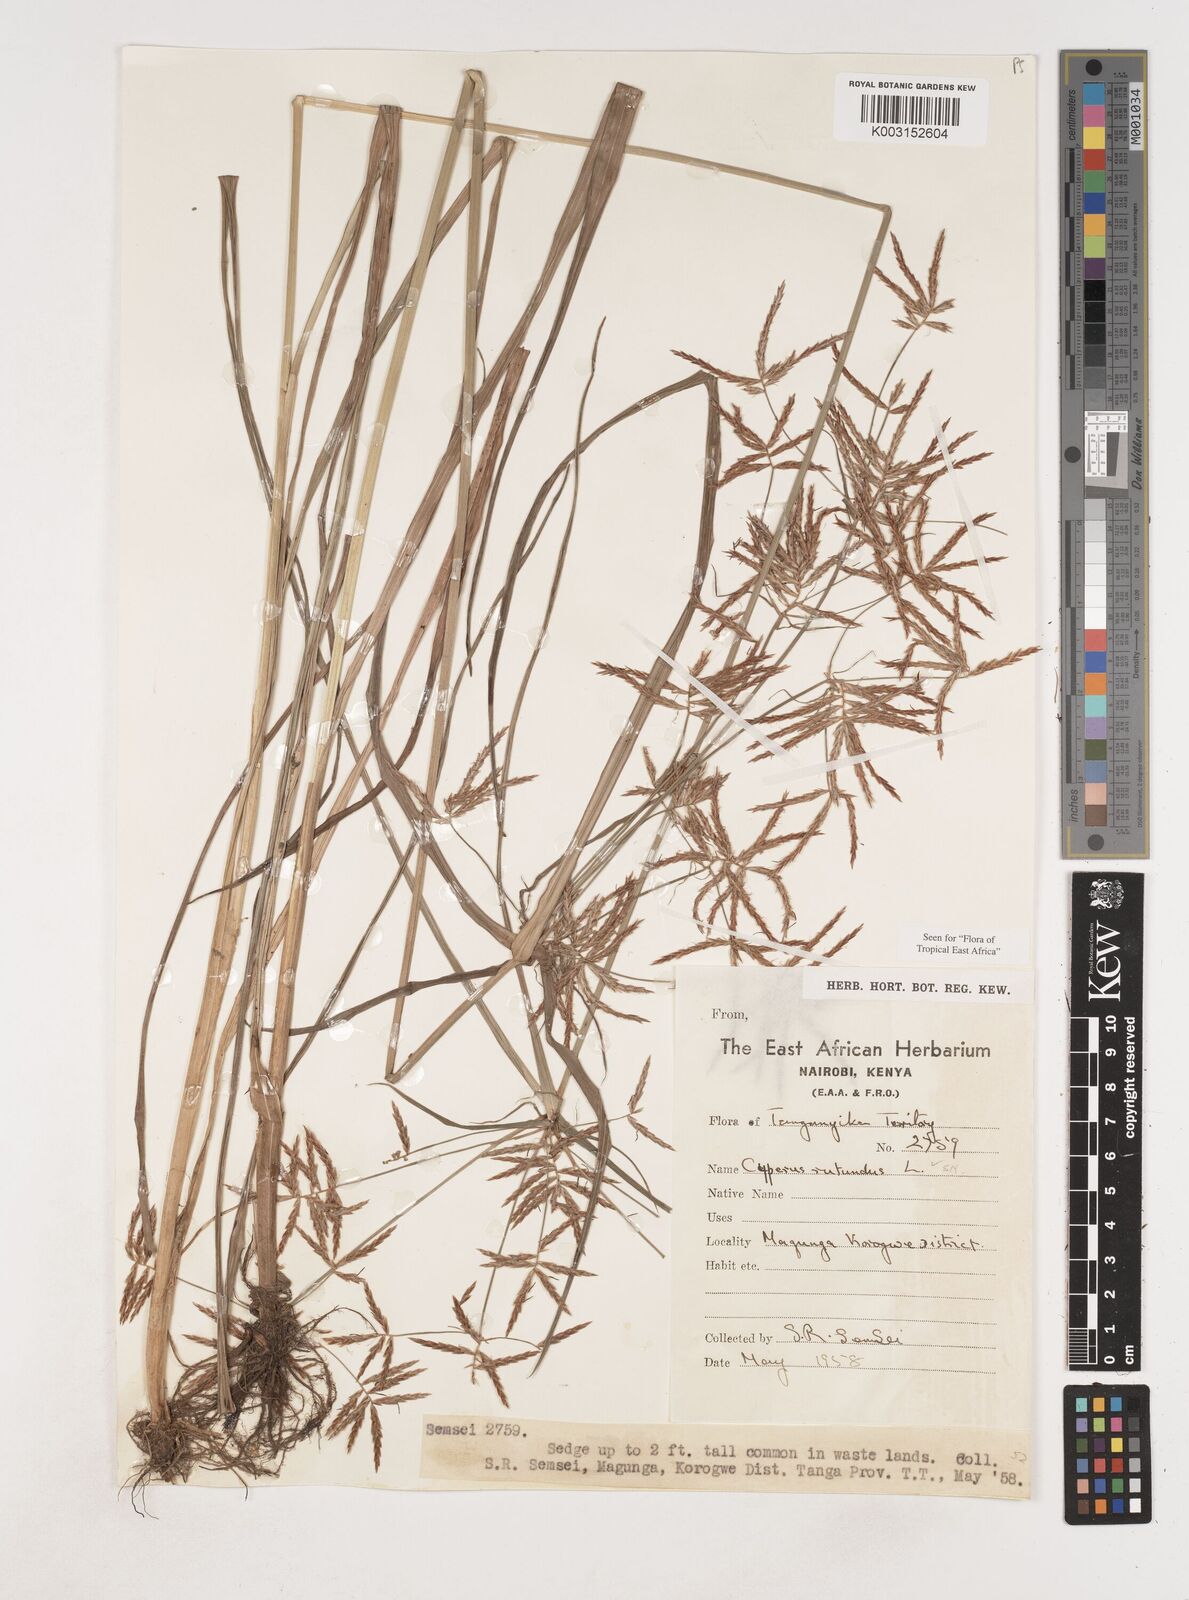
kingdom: Plantae
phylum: Tracheophyta
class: Liliopsida
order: Poales
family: Cyperaceae
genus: Cyperus
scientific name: Cyperus tuberosus
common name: Nut grass
